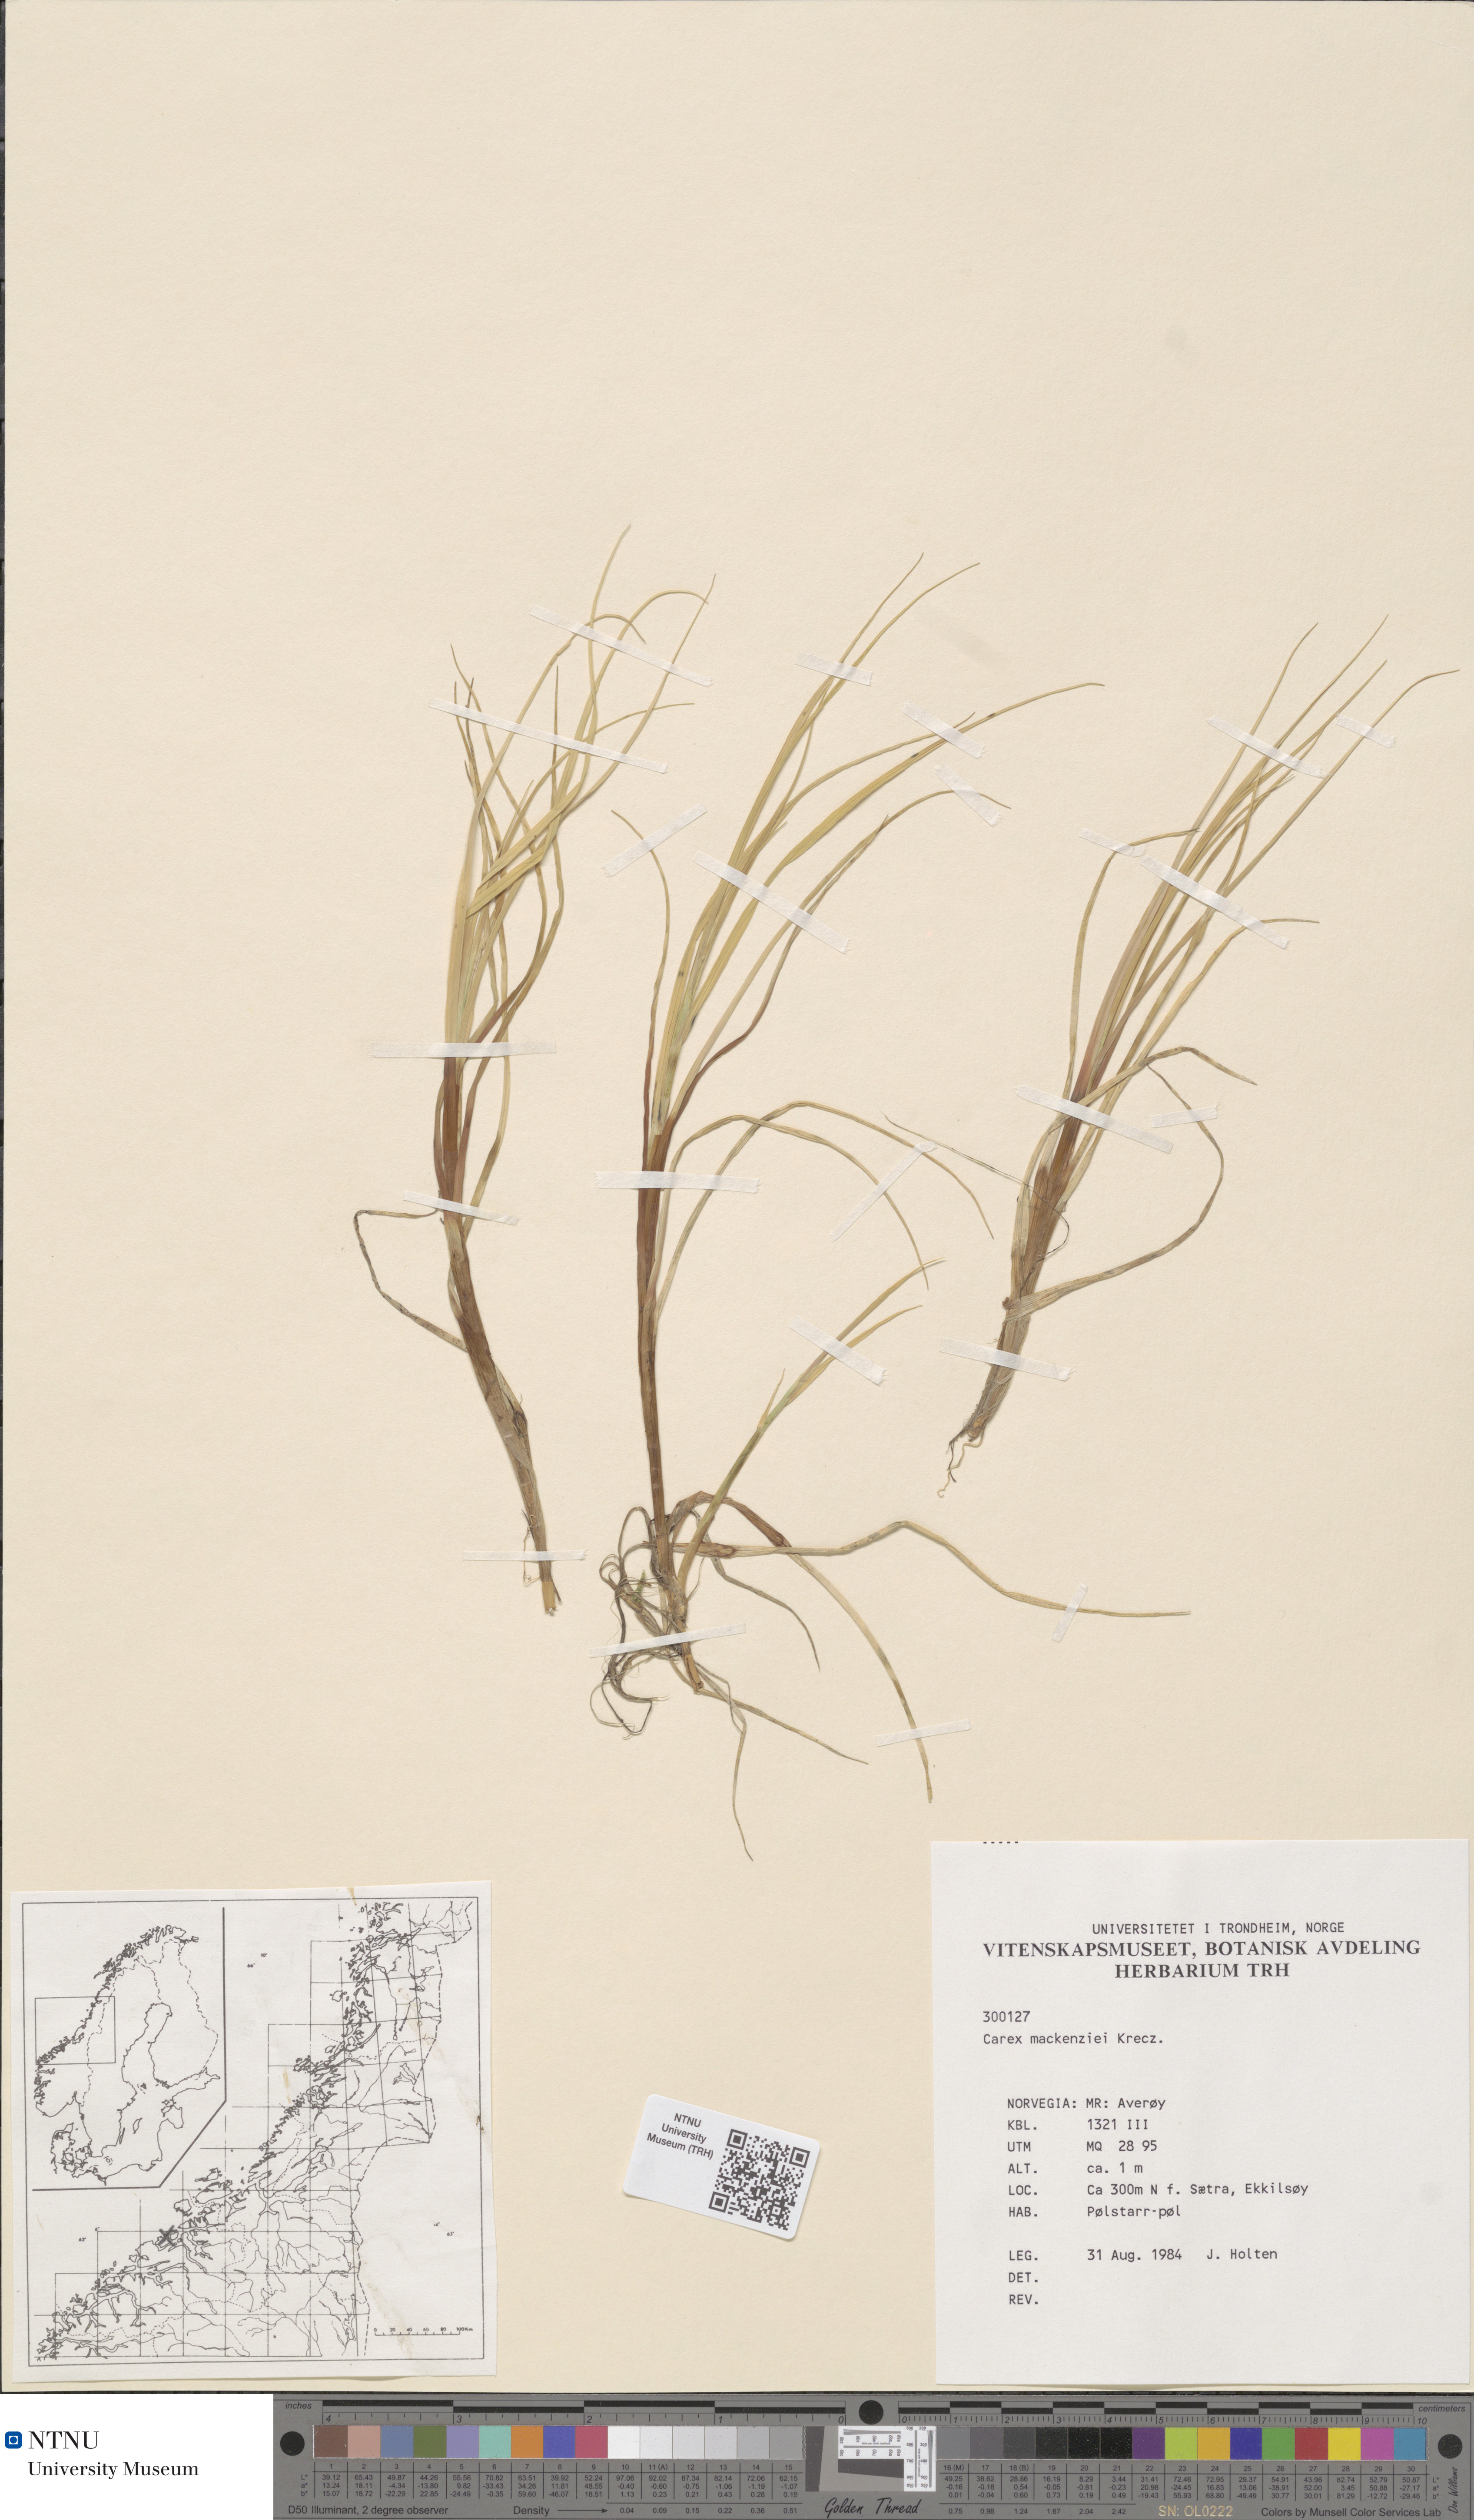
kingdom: Plantae
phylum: Tracheophyta
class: Liliopsida
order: Poales
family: Cyperaceae
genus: Carex
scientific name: Carex mackenziei
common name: Mackenzie's sedge
